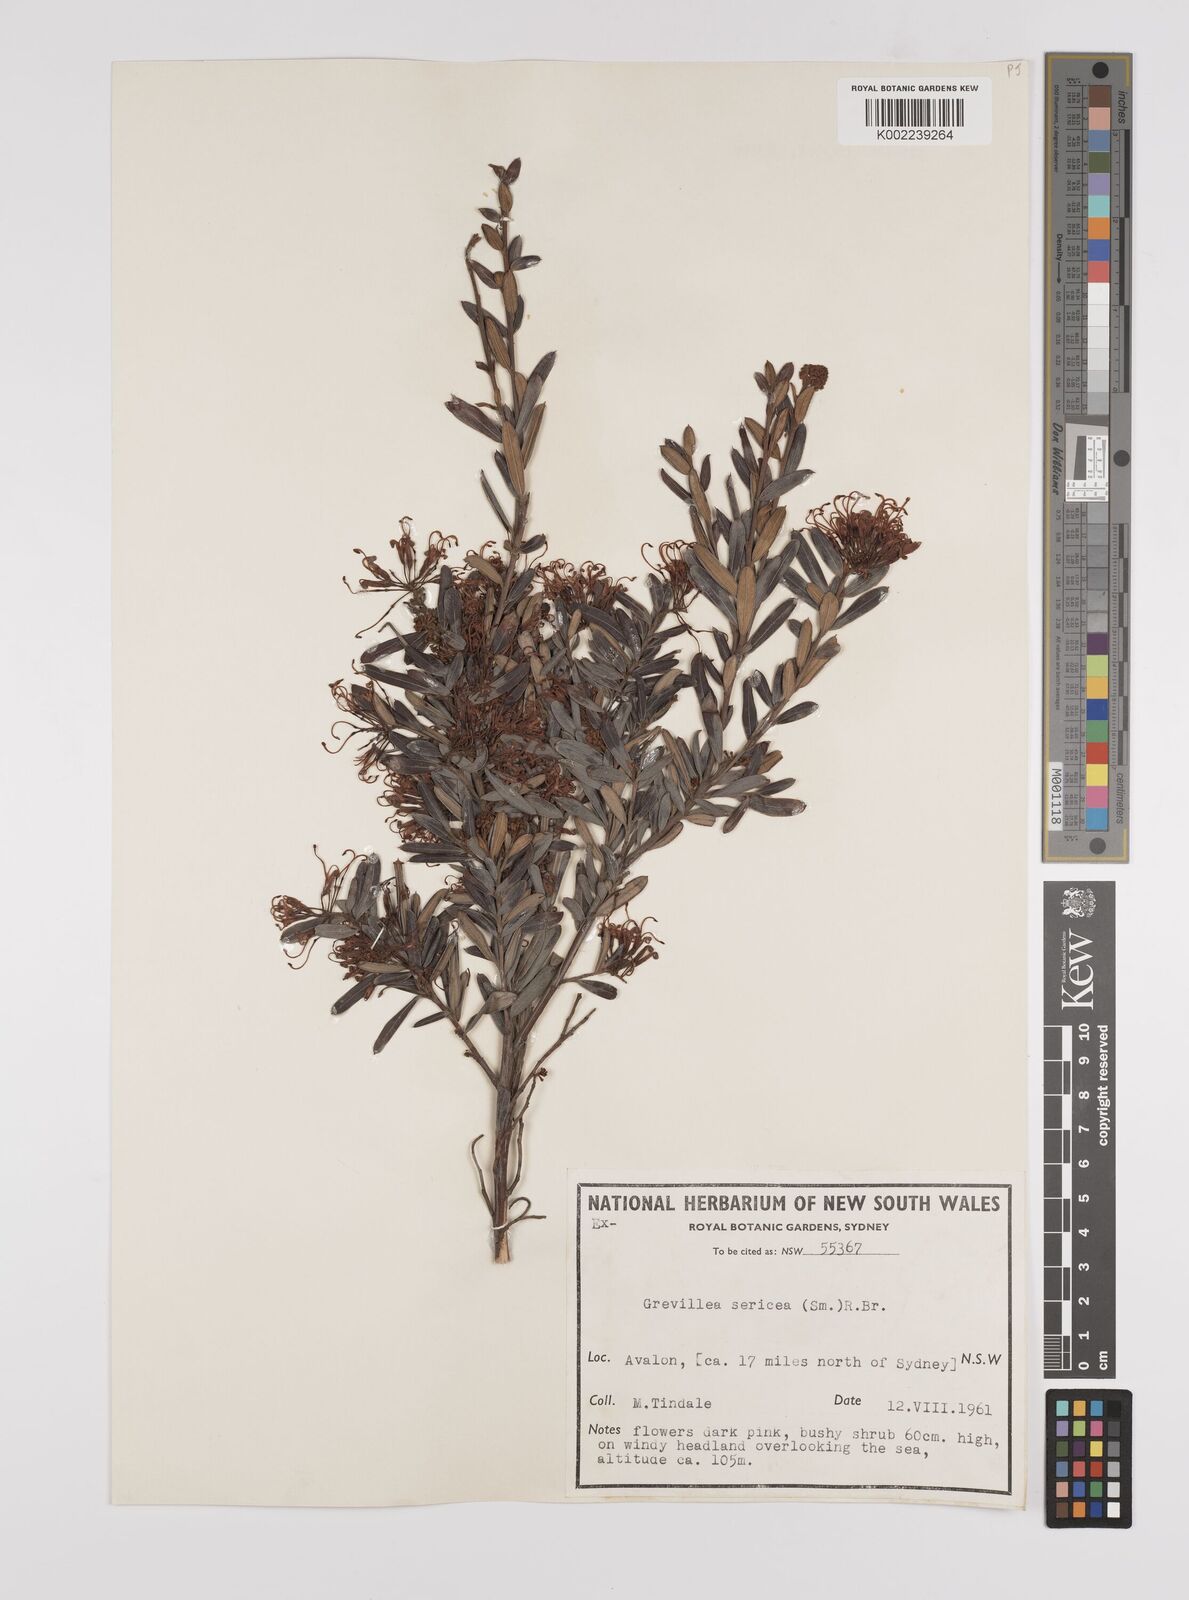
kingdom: Plantae
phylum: Tracheophyta
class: Magnoliopsida
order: Proteales
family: Proteaceae
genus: Grevillea
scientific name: Grevillea sericea
